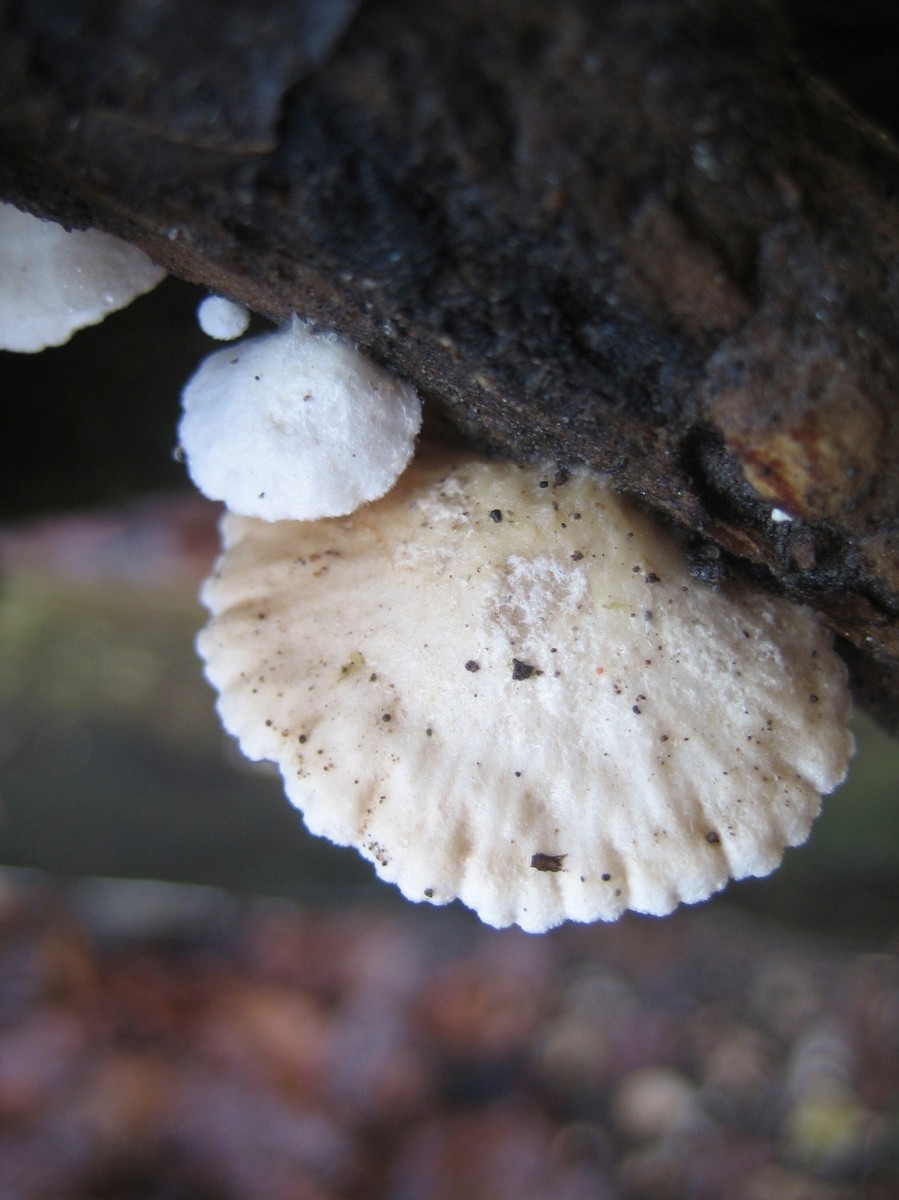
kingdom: Fungi
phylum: Basidiomycota
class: Agaricomycetes
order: Agaricales
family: Crepidotaceae
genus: Crepidotus
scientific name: Crepidotus
